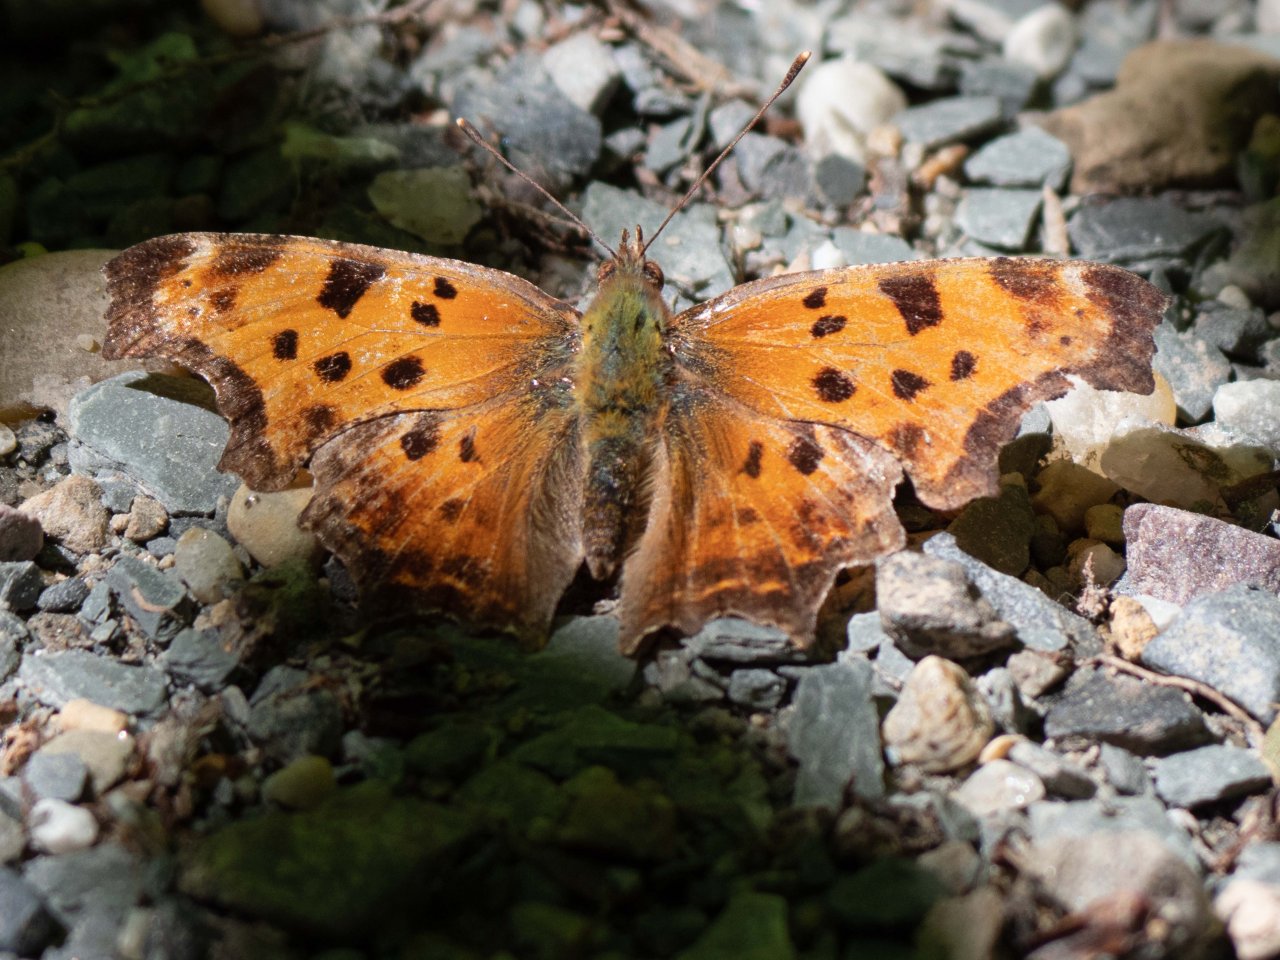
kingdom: Animalia
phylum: Arthropoda
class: Insecta
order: Lepidoptera
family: Nymphalidae
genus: Polygonia
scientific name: Polygonia comma
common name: Eastern Comma
